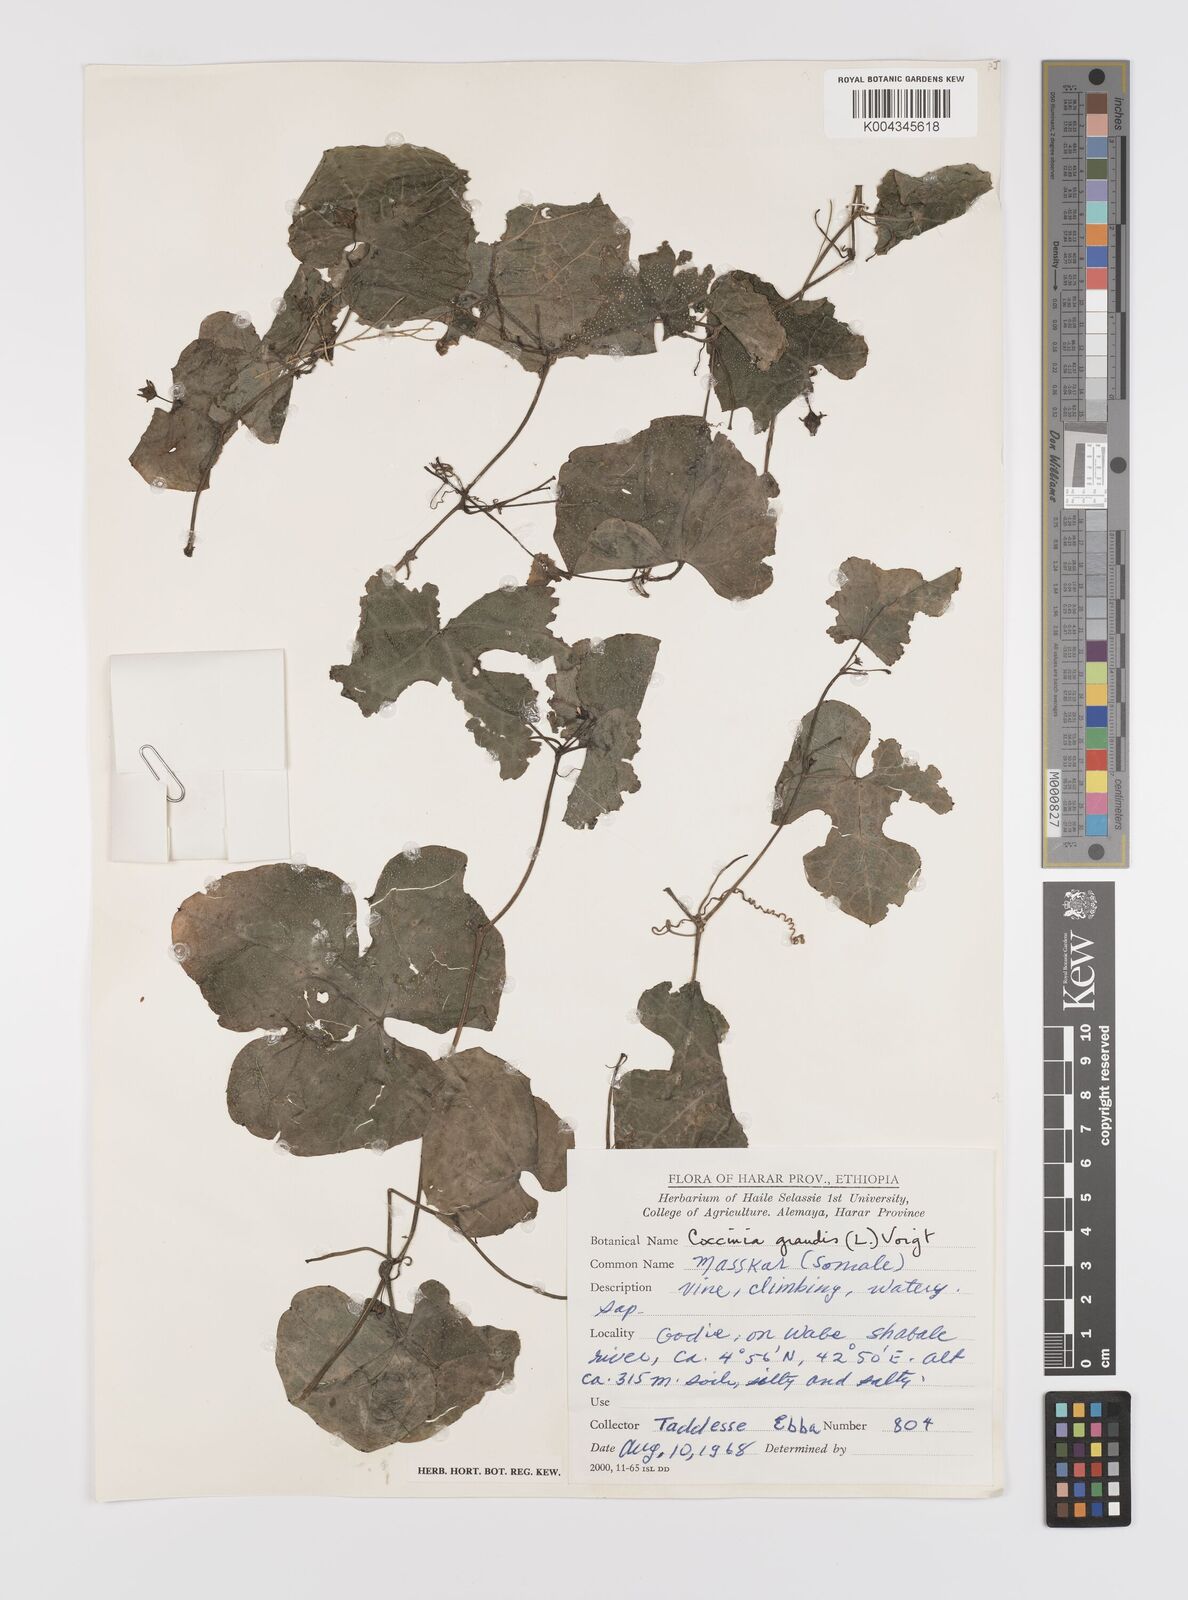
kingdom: Plantae
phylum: Tracheophyta
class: Magnoliopsida
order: Cucurbitales
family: Cucurbitaceae
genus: Coccinia
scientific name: Coccinia grandis
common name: Ivy gourd
